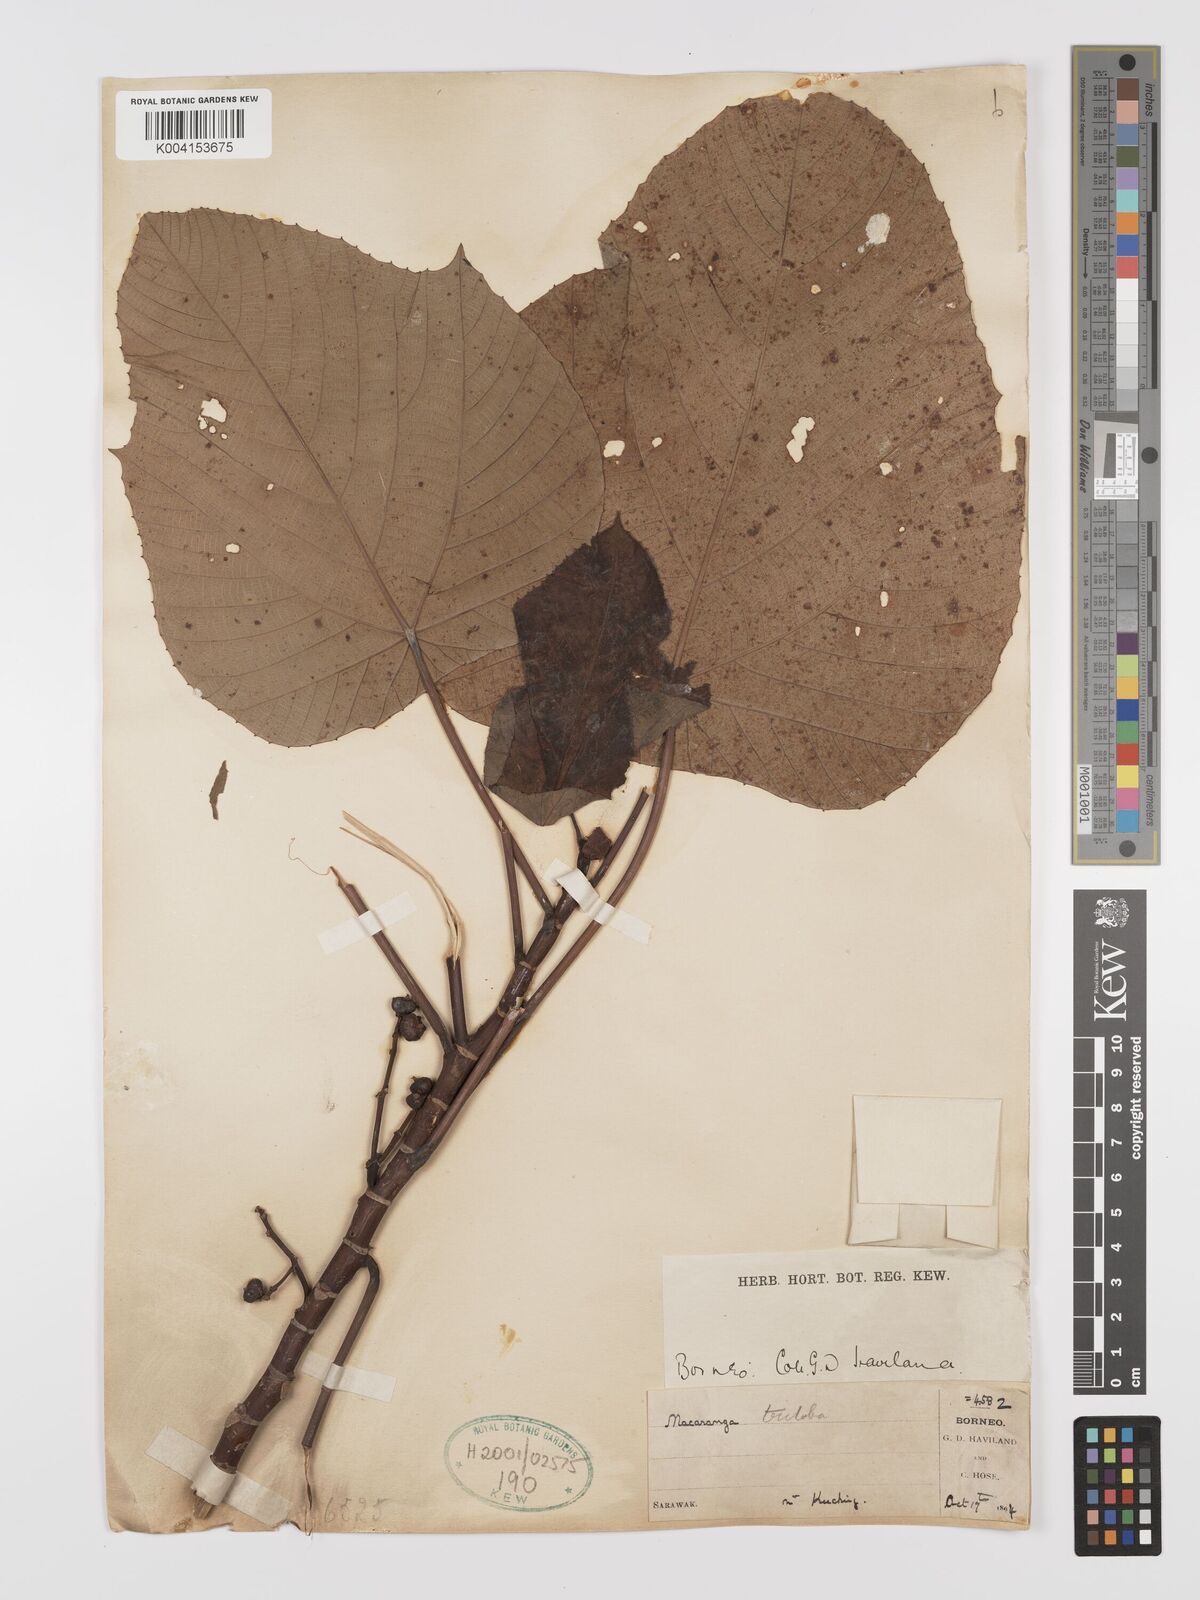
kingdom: Plantae
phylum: Tracheophyta
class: Magnoliopsida
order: Malpighiales
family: Euphorbiaceae
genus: Macaranga
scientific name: Macaranga triloba
